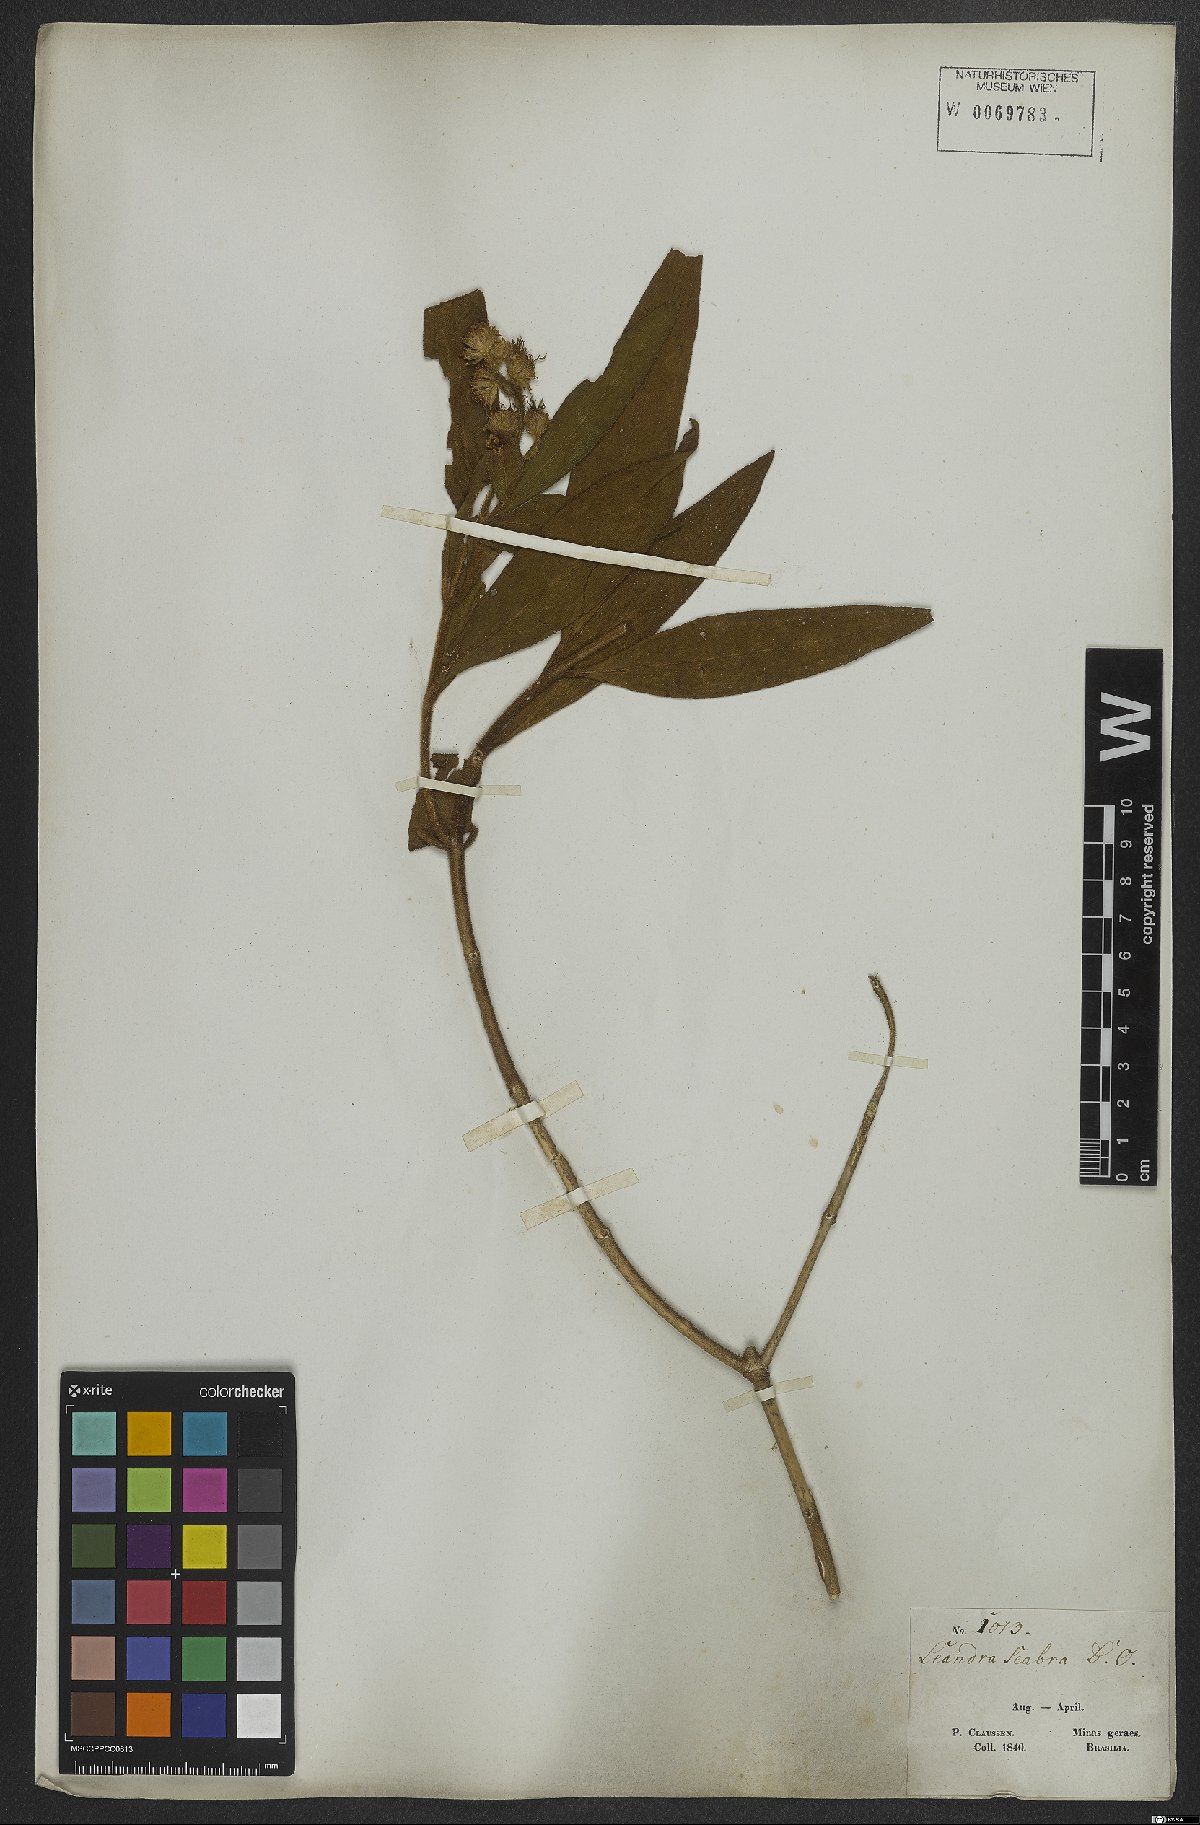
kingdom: Plantae
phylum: Tracheophyta
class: Magnoliopsida
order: Myrtales
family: Melastomataceae
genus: Miconia
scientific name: Miconia melastomoides
